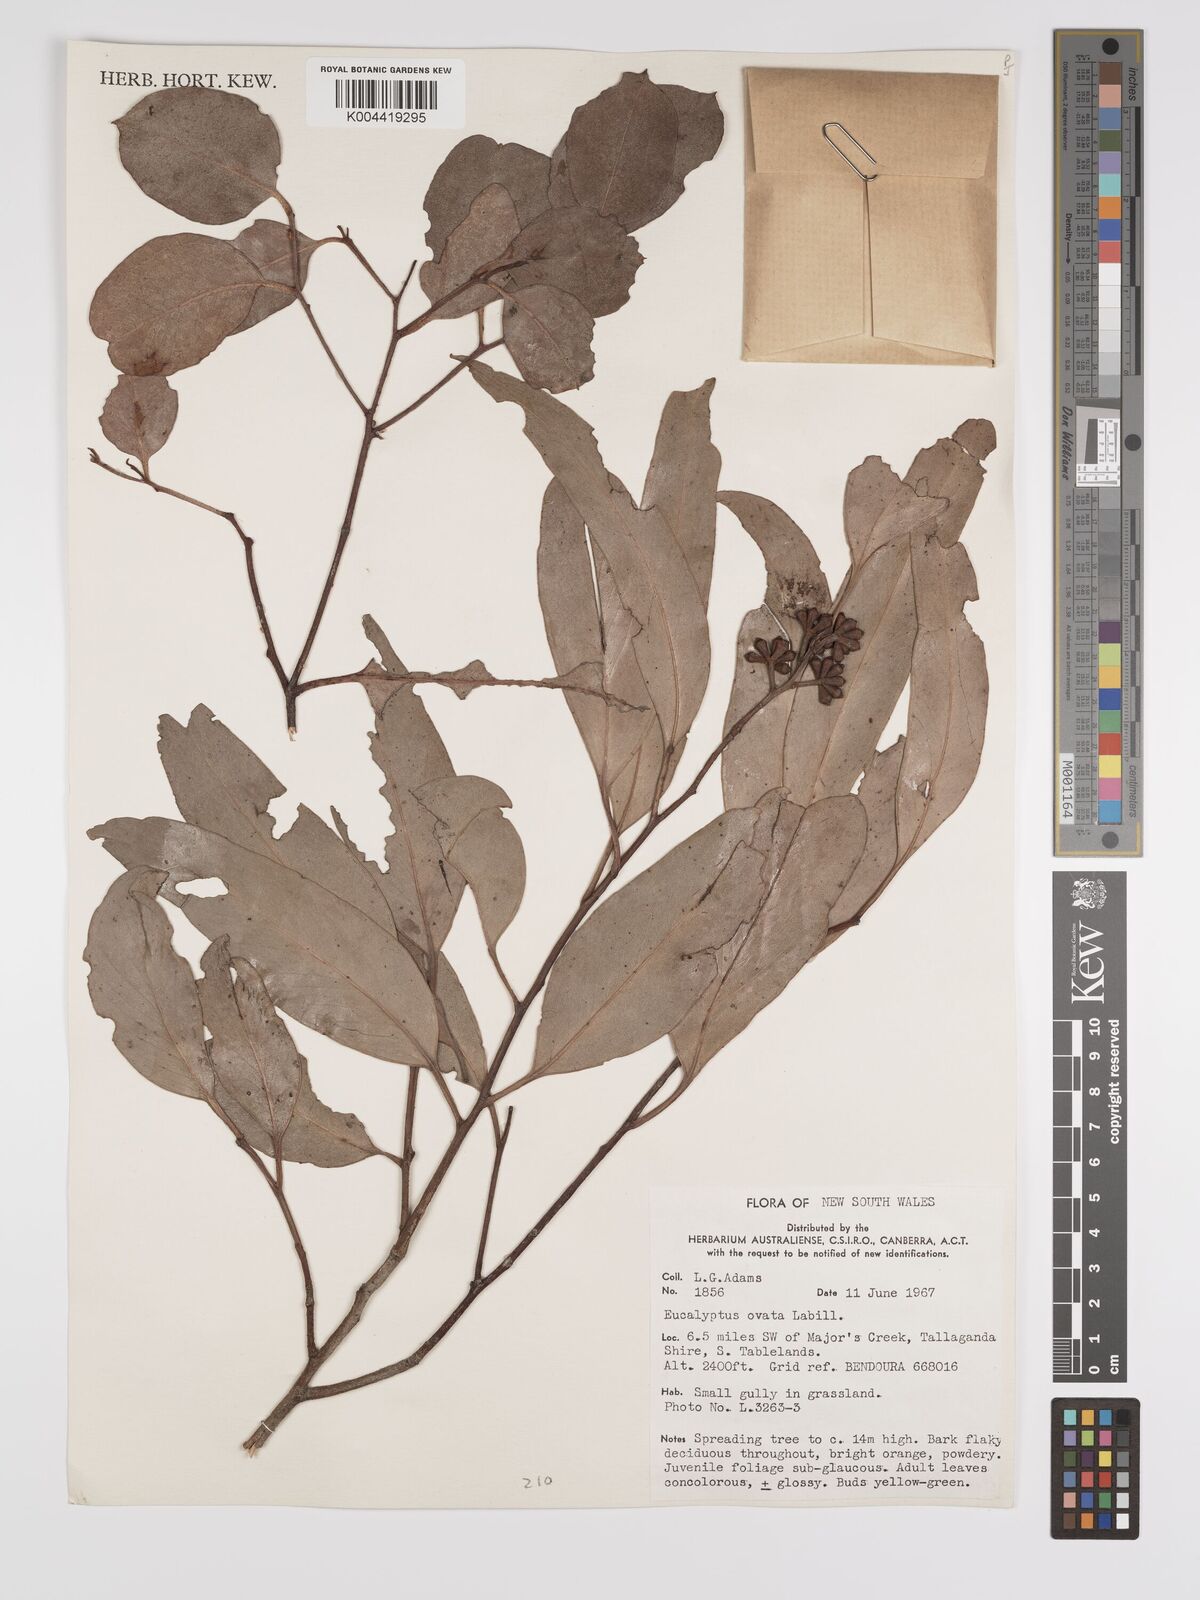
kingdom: Plantae
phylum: Tracheophyta
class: Magnoliopsida
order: Myrtales
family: Myrtaceae
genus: Eucalyptus
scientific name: Eucalyptus ovata
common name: Black-gum
